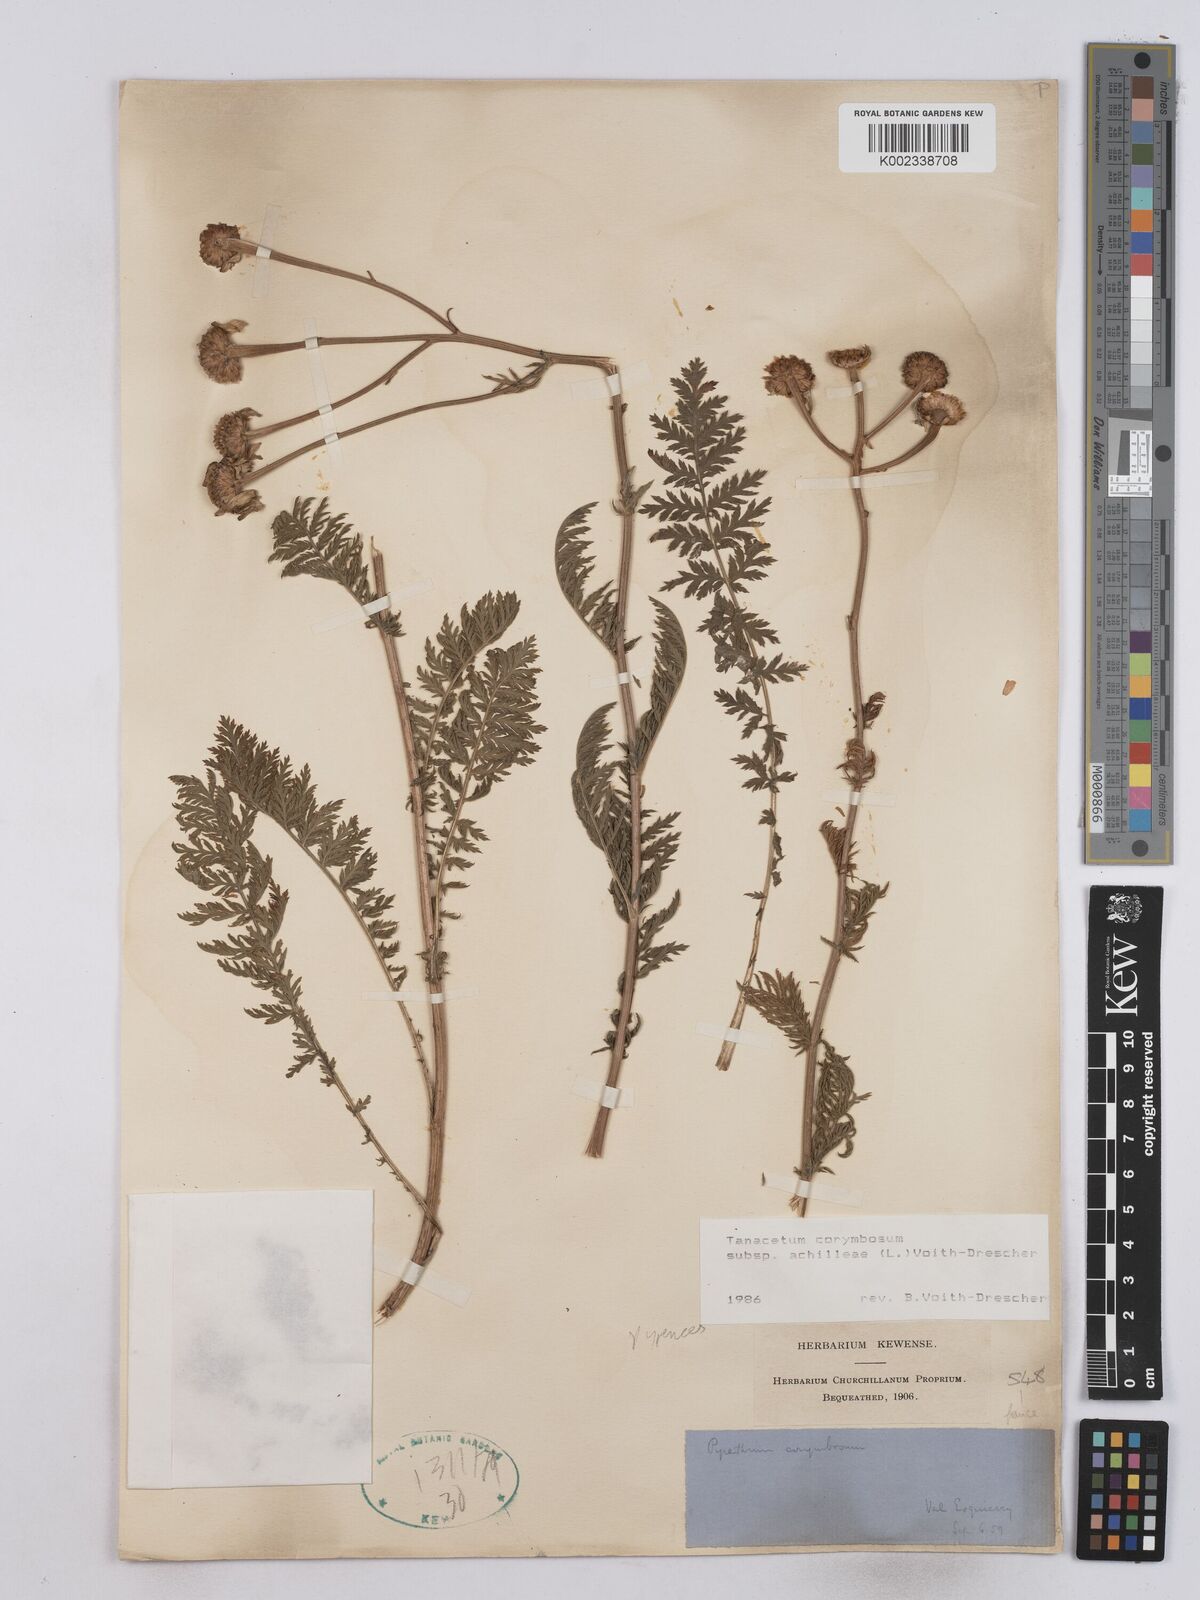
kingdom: Plantae
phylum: Tracheophyta
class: Magnoliopsida
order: Asterales
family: Asteraceae
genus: Tanacetum
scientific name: Tanacetum corymbosum
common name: Scentless feverfew
